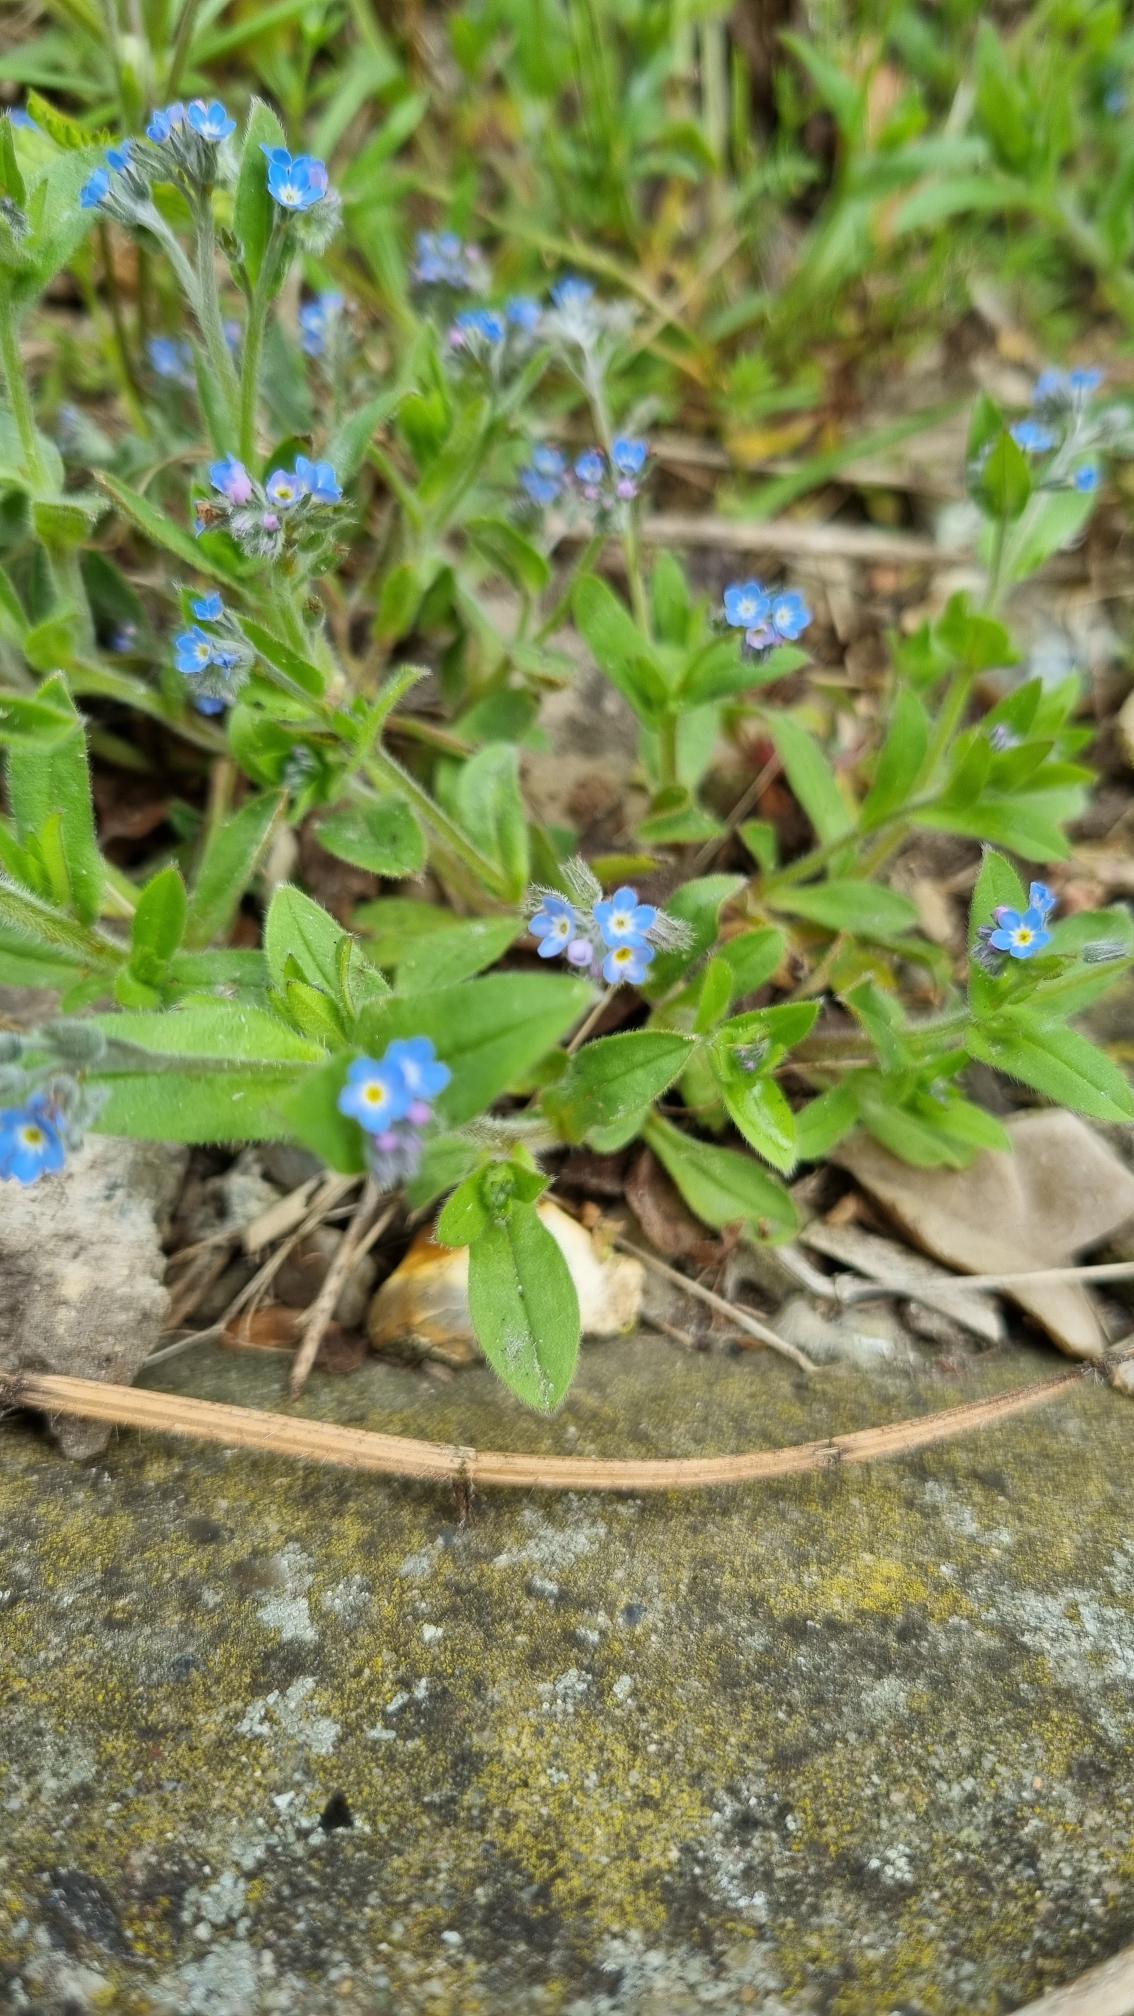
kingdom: Plantae
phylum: Tracheophyta
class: Magnoliopsida
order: Boraginales
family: Boraginaceae
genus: Myosotis
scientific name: Myosotis arvensis
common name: Mark-forglemmigej
